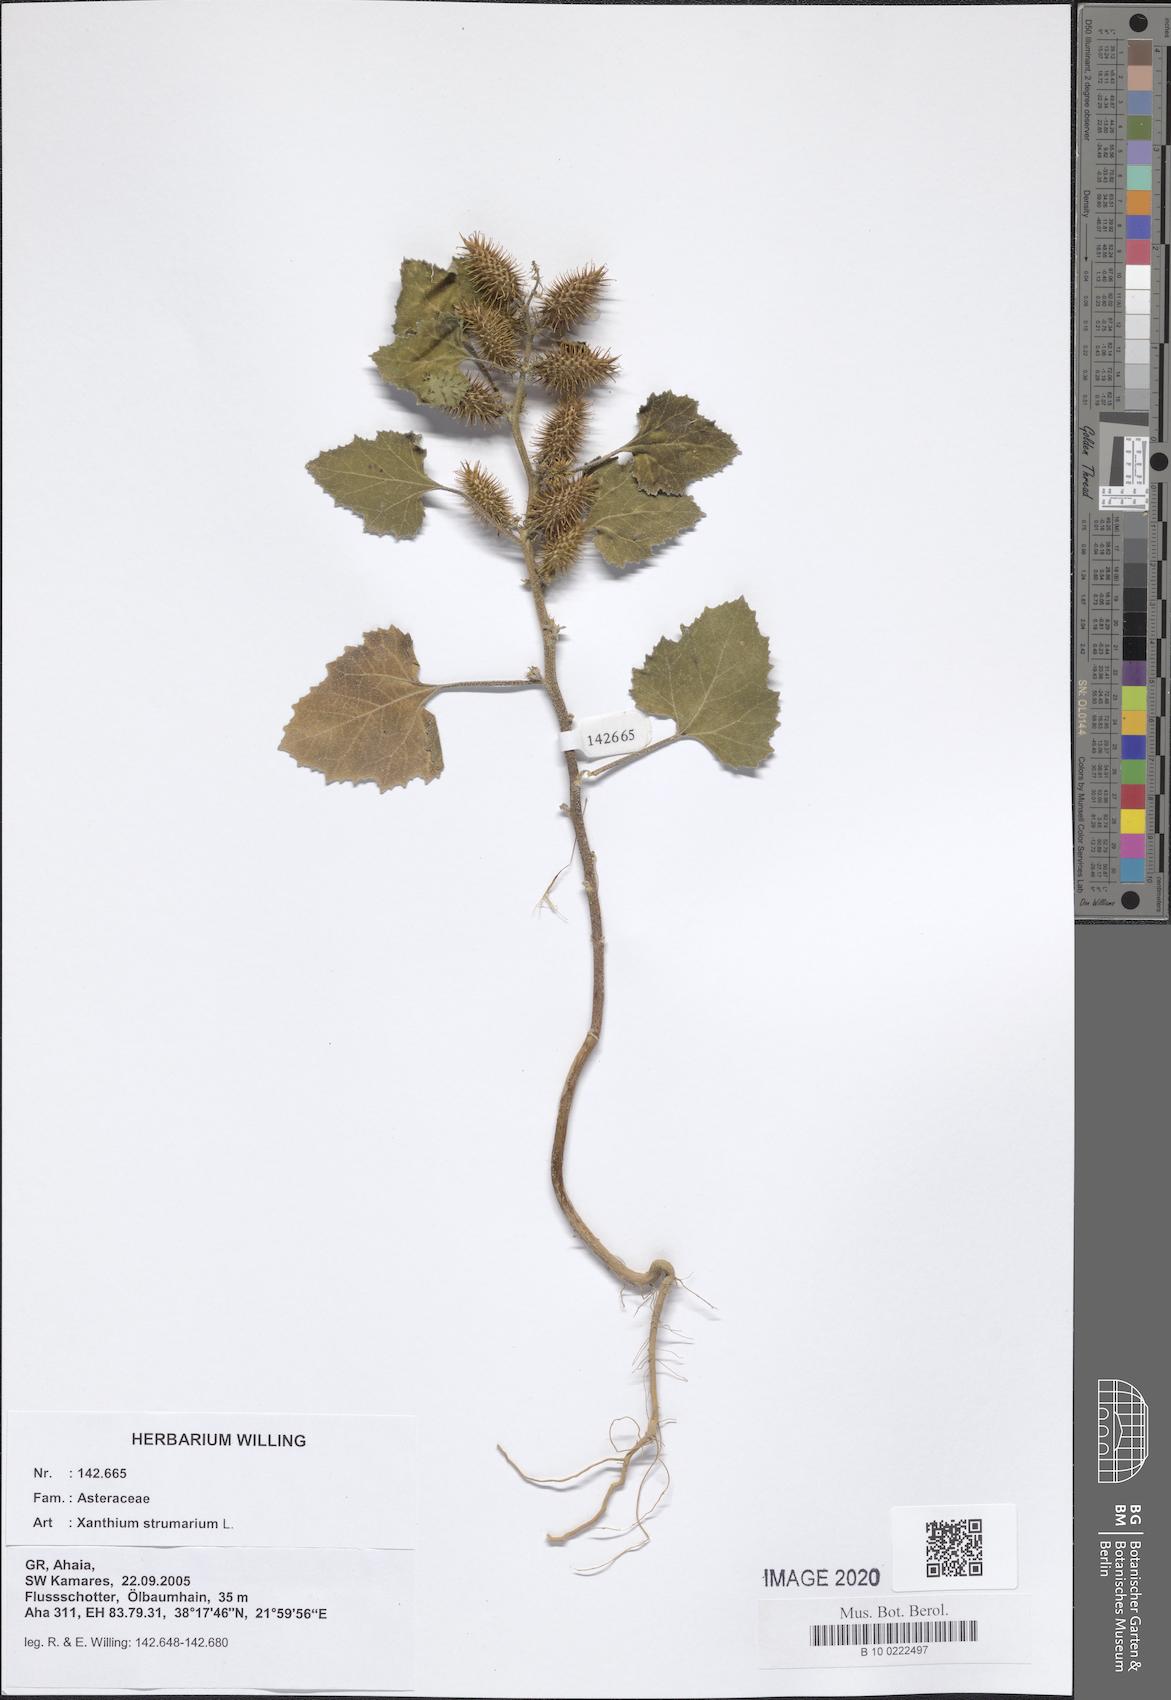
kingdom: Plantae
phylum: Tracheophyta
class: Magnoliopsida
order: Asterales
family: Asteraceae
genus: Xanthium
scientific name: Xanthium strumarium
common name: Rough cocklebur
